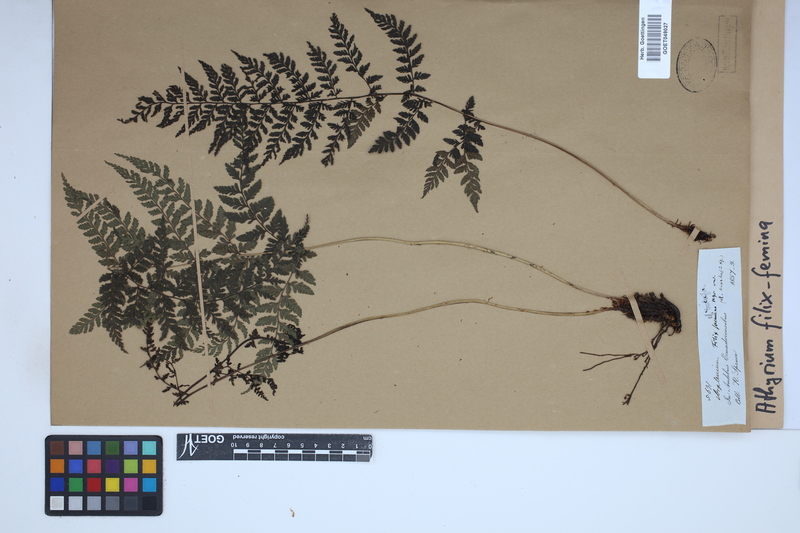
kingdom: Plantae
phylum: Tracheophyta
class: Polypodiopsida
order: Polypodiales
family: Athyriaceae
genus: Athyrium
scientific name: Athyrium filix-femina
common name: Lady fern
